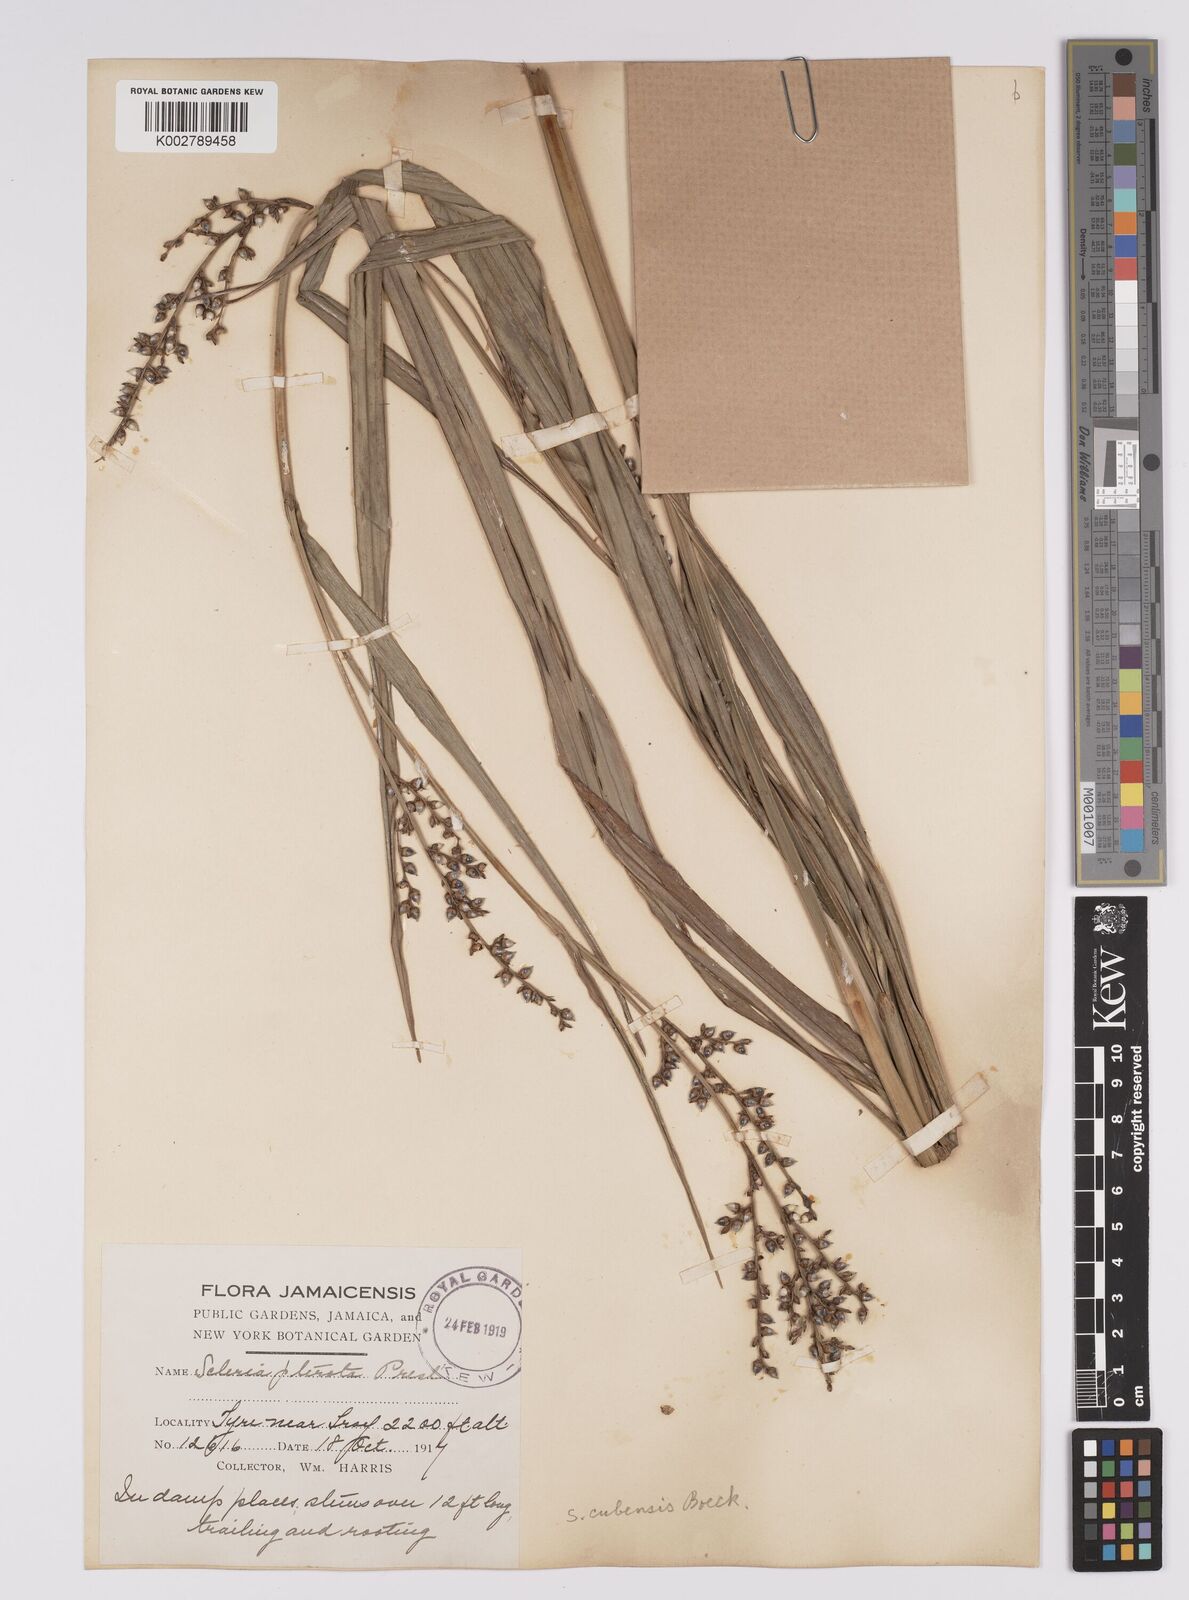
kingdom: Plantae
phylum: Tracheophyta
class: Liliopsida
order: Poales
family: Cyperaceae
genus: Scleria
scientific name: Scleria microcarpa
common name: Tropical nutrush
